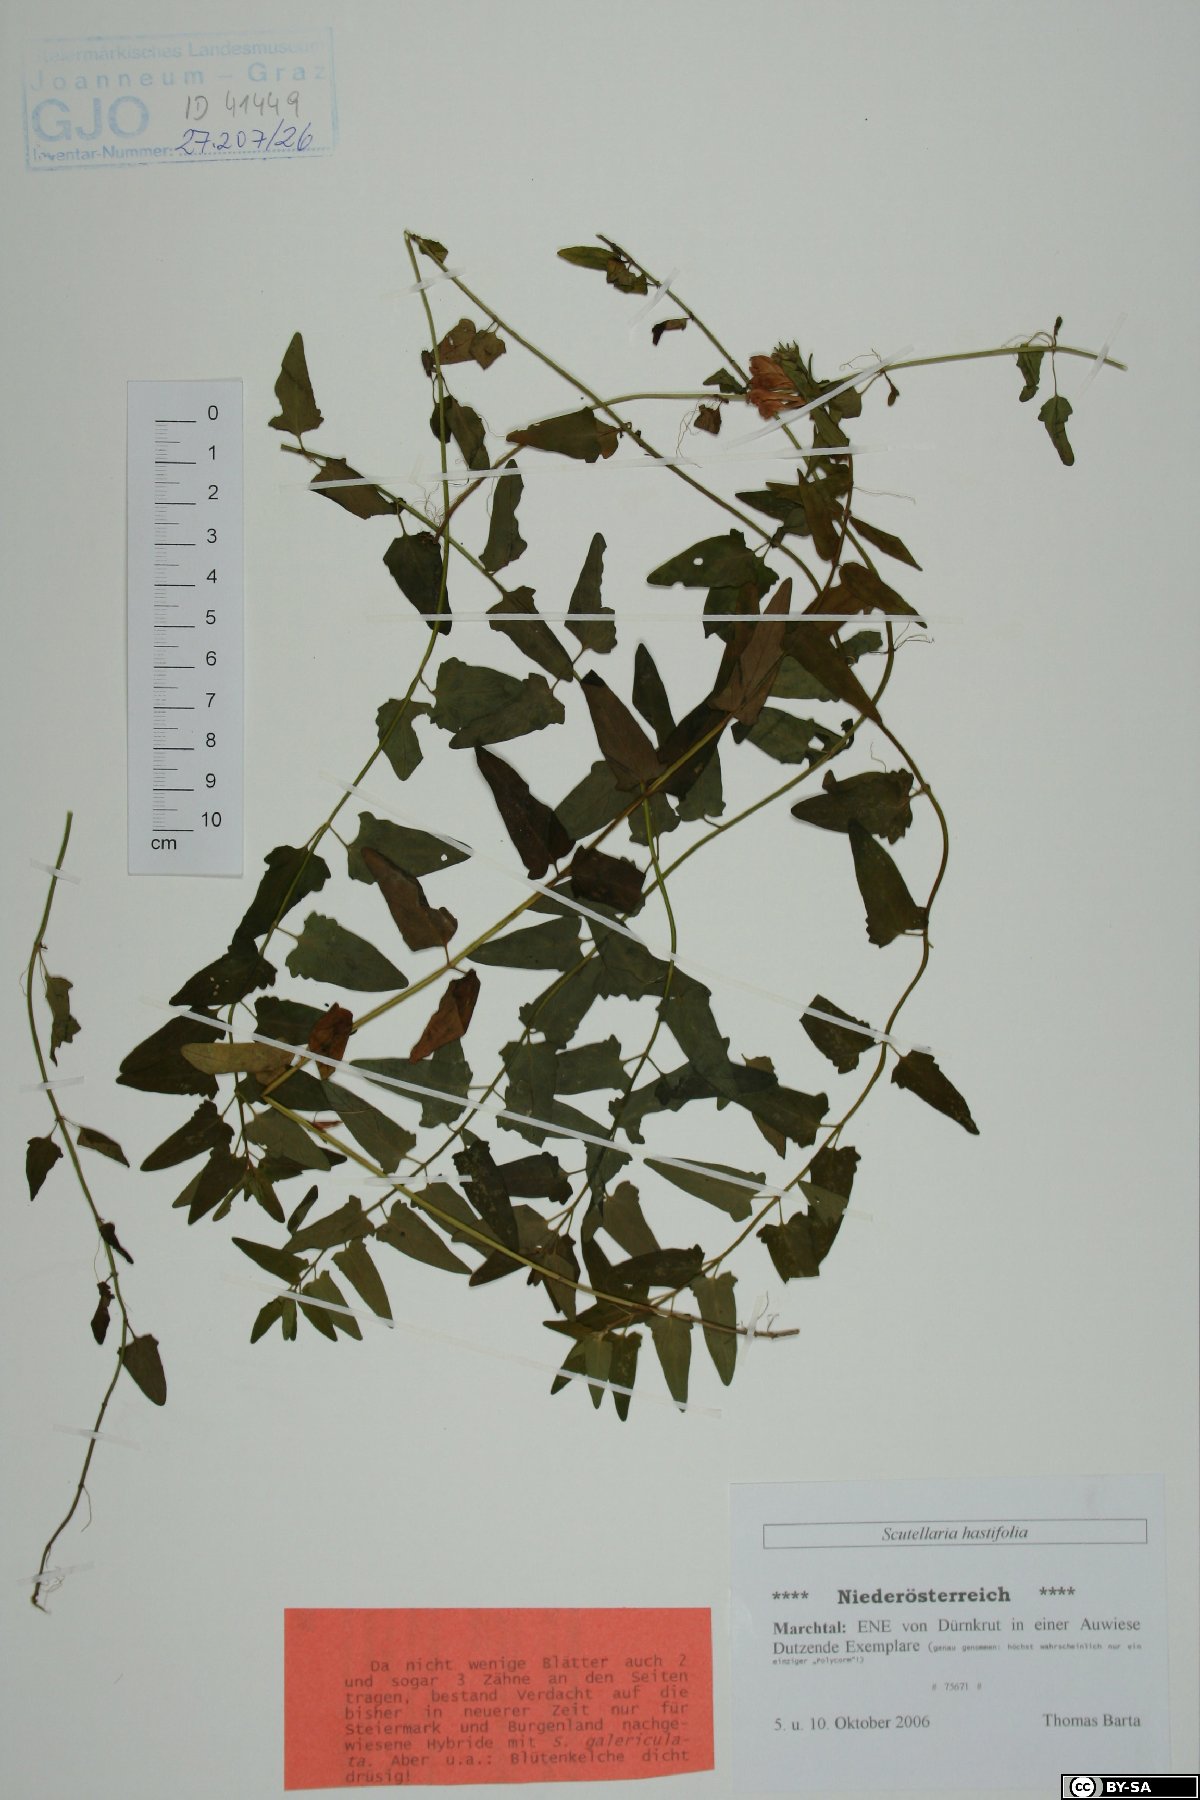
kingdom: Plantae
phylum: Tracheophyta
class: Magnoliopsida
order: Lamiales
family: Lamiaceae
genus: Scutellaria
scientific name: Scutellaria hastifolia
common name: Norfolk skullcap
